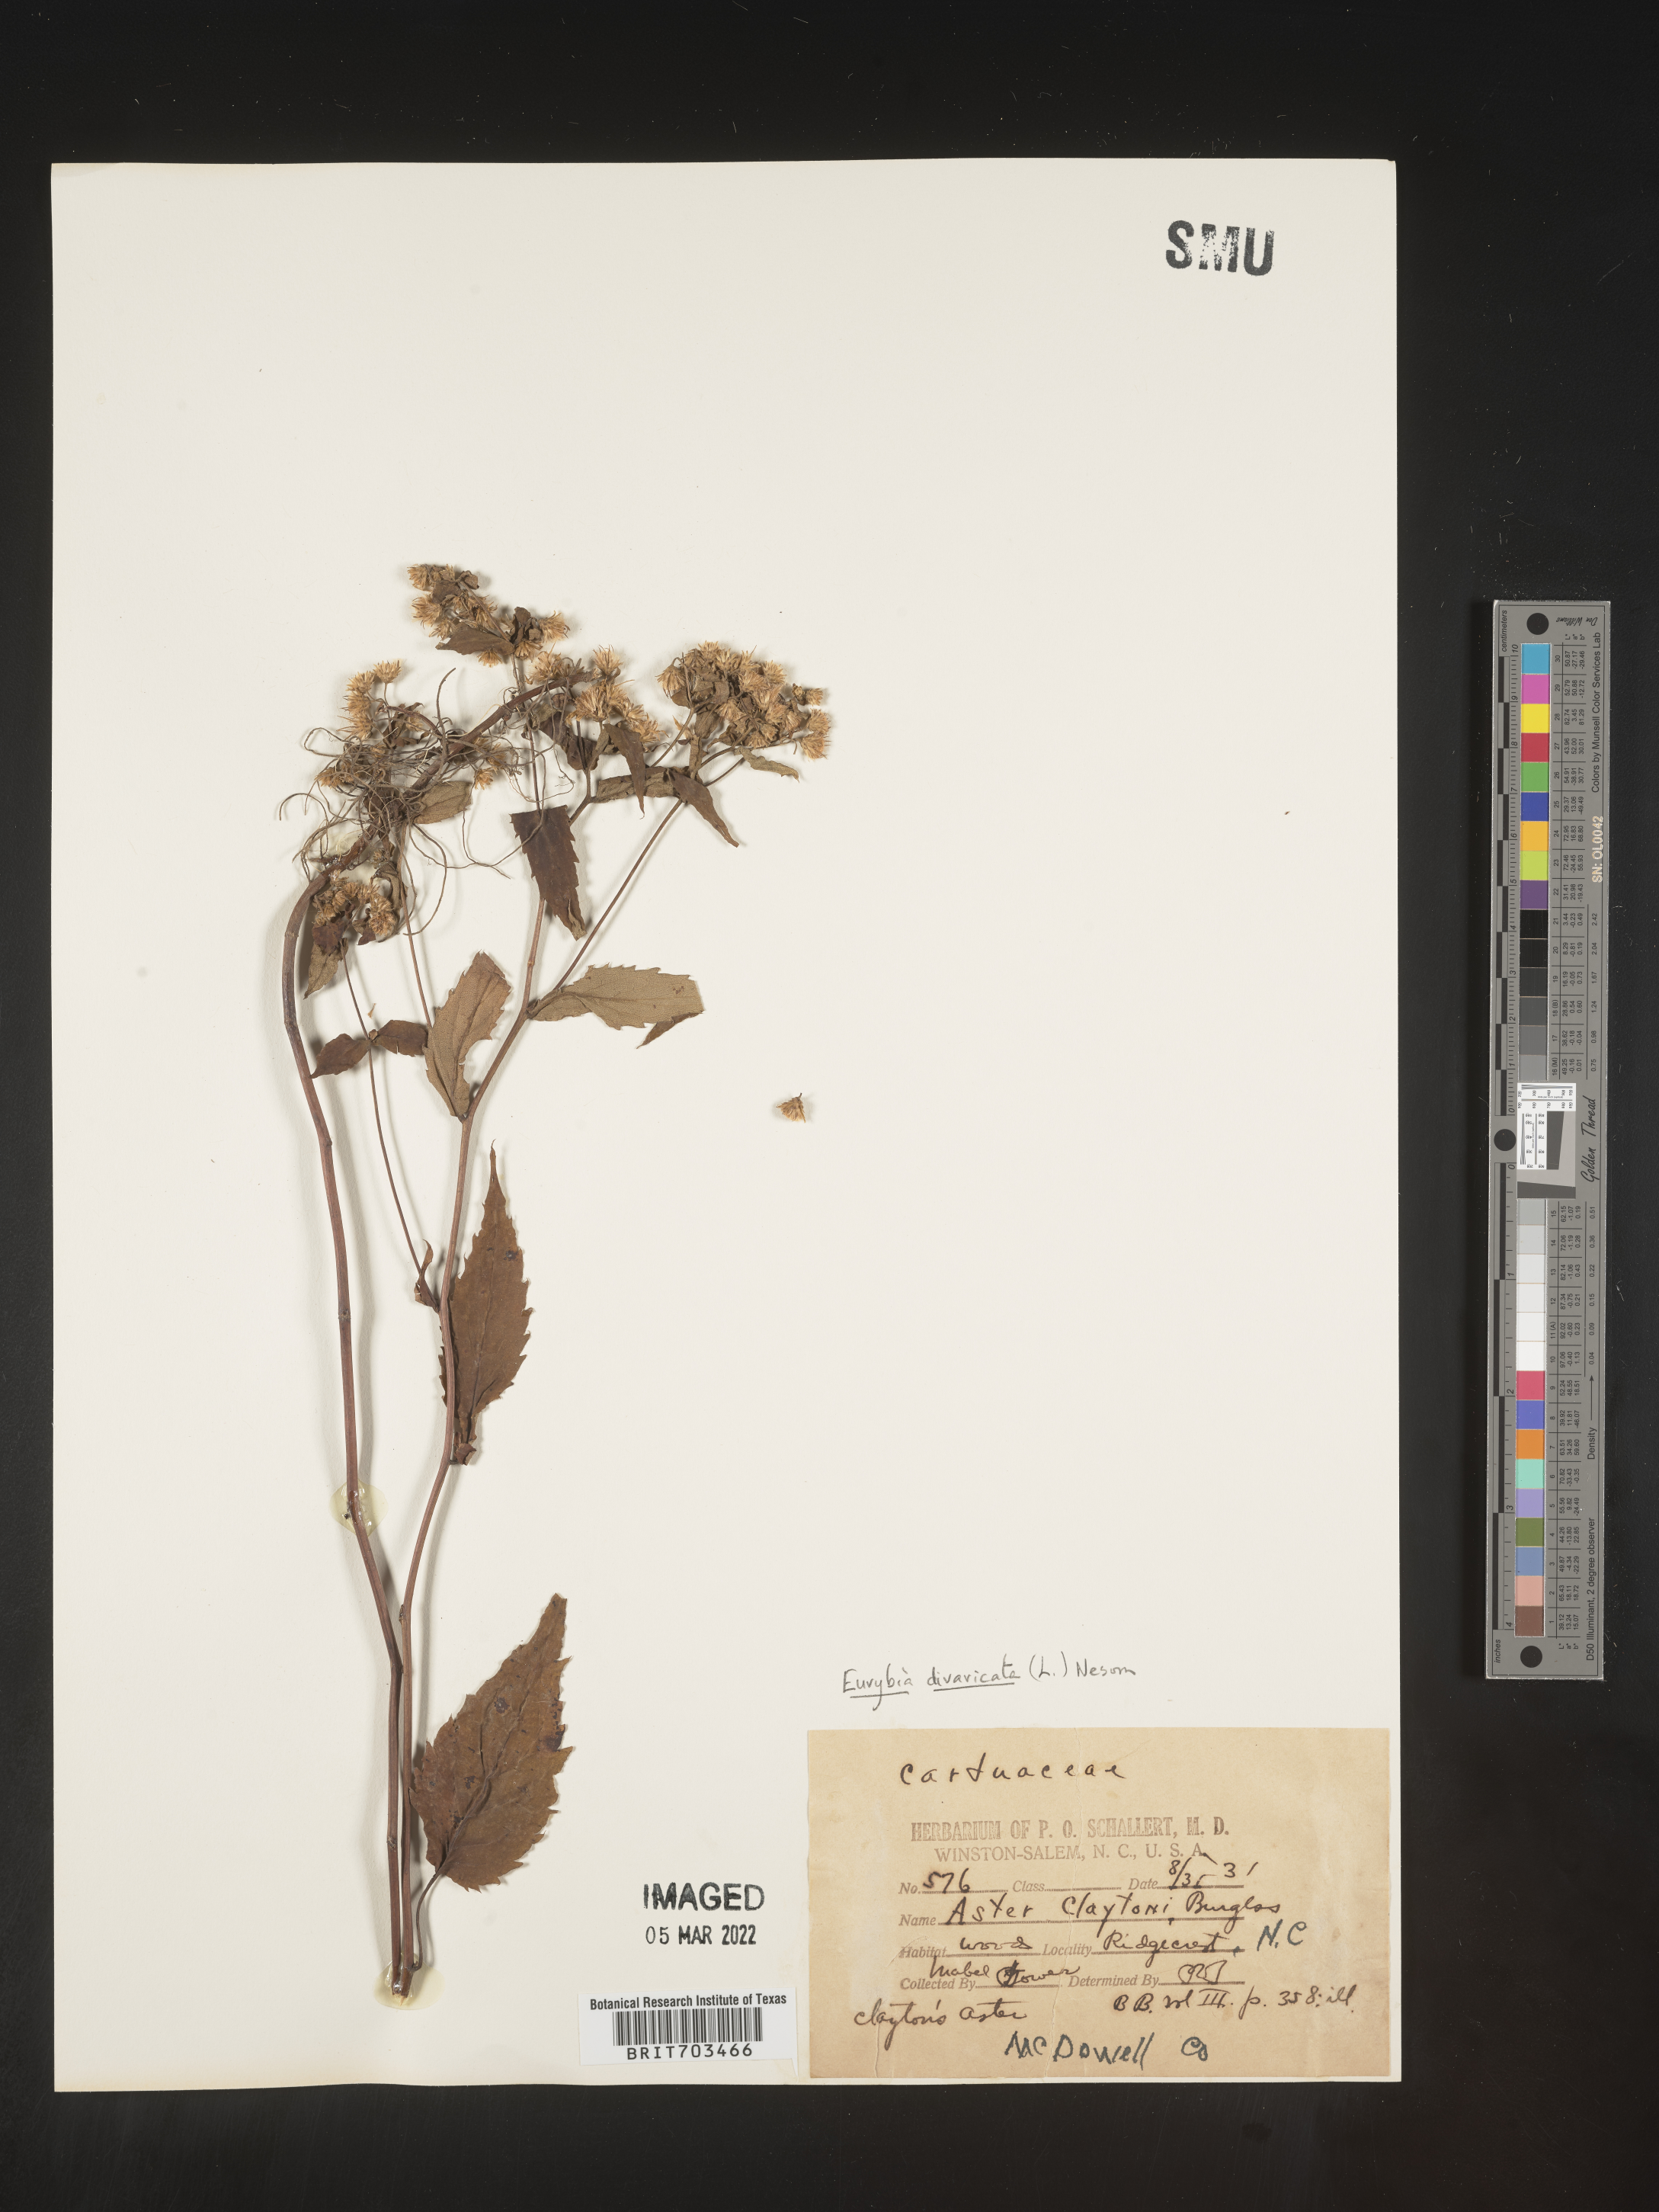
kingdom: Plantae
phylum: Tracheophyta
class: Magnoliopsida
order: Asterales
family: Asteraceae
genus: Eurybia
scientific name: Eurybia divaricata
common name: White wood aster
